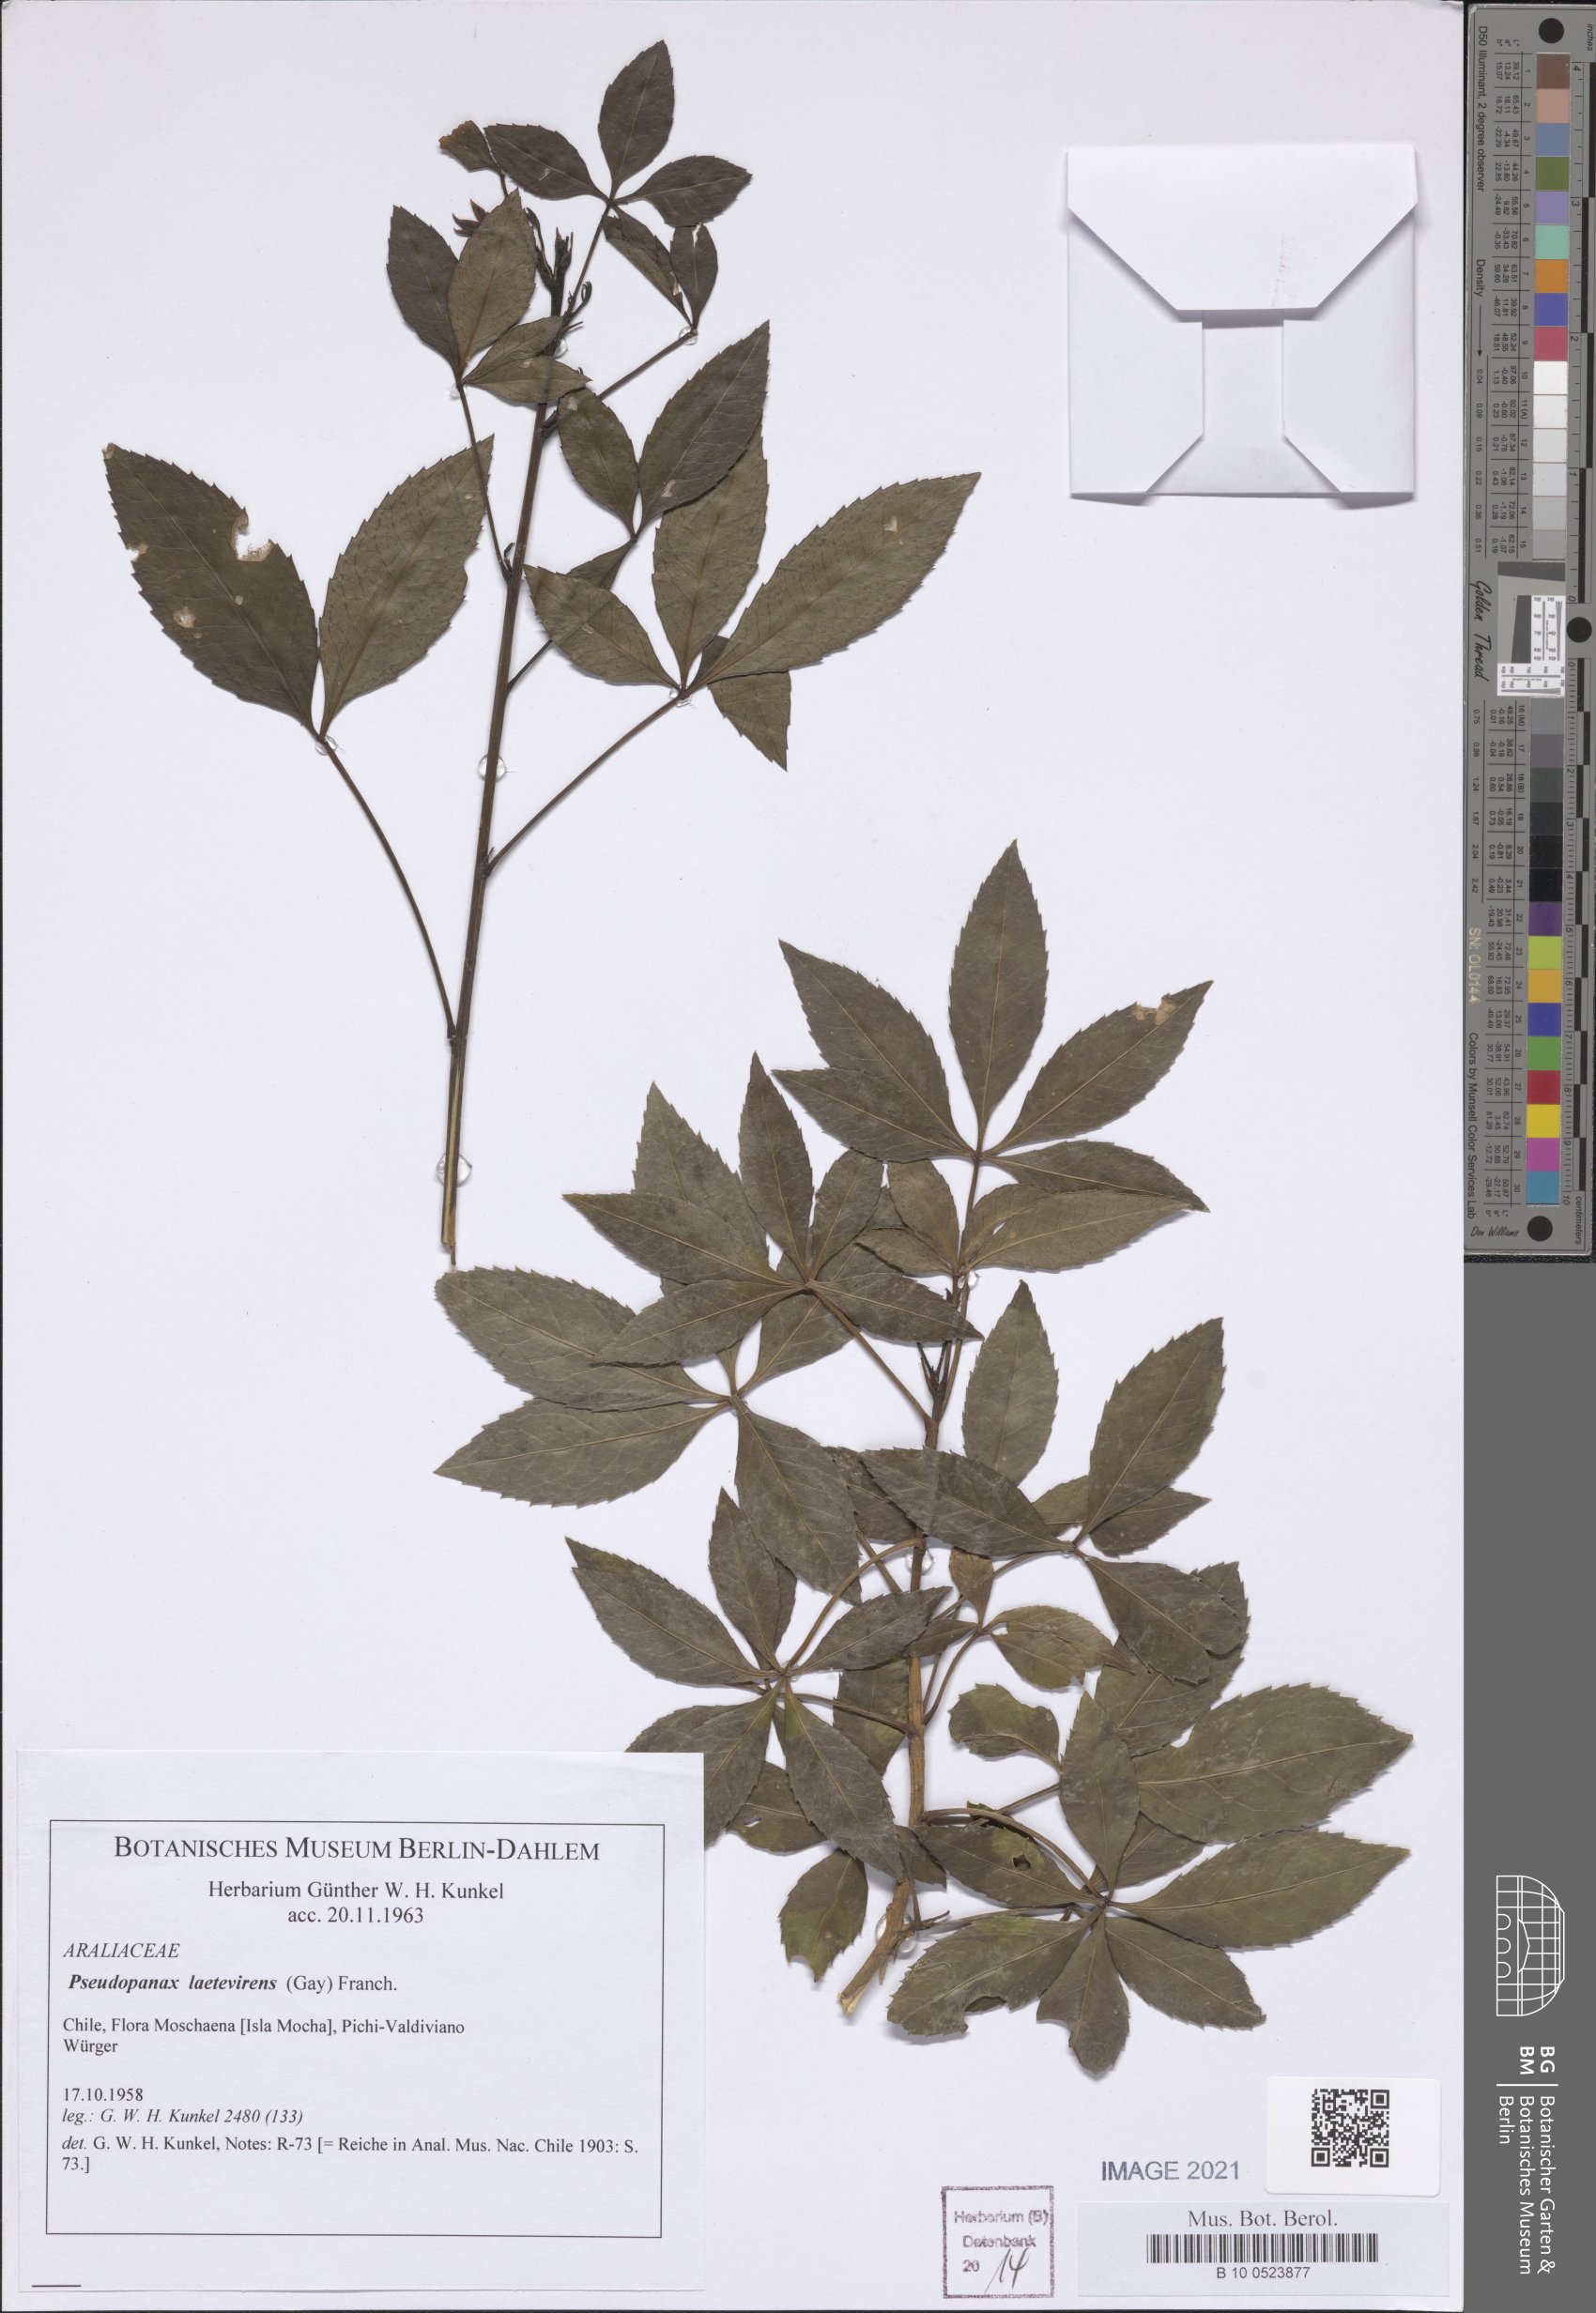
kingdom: Plantae
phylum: Tracheophyta
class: Magnoliopsida
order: Apiales
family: Araliaceae
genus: Raukaua
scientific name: Raukaua laetevirens
